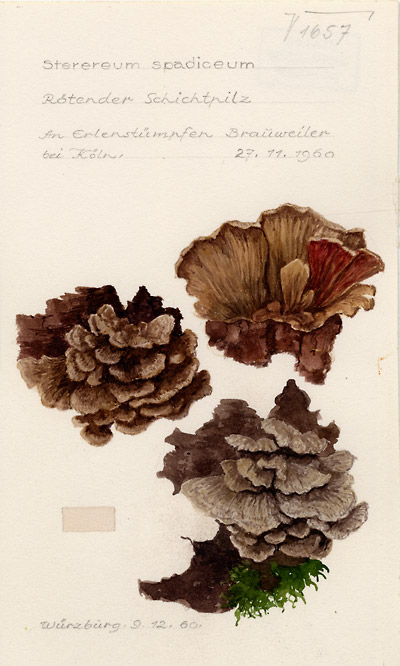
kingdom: Fungi
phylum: Basidiomycota
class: Agaricomycetes
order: Russulales
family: Stereaceae
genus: Stereum
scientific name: Stereum gausapatum
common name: Bleeding oak crust
